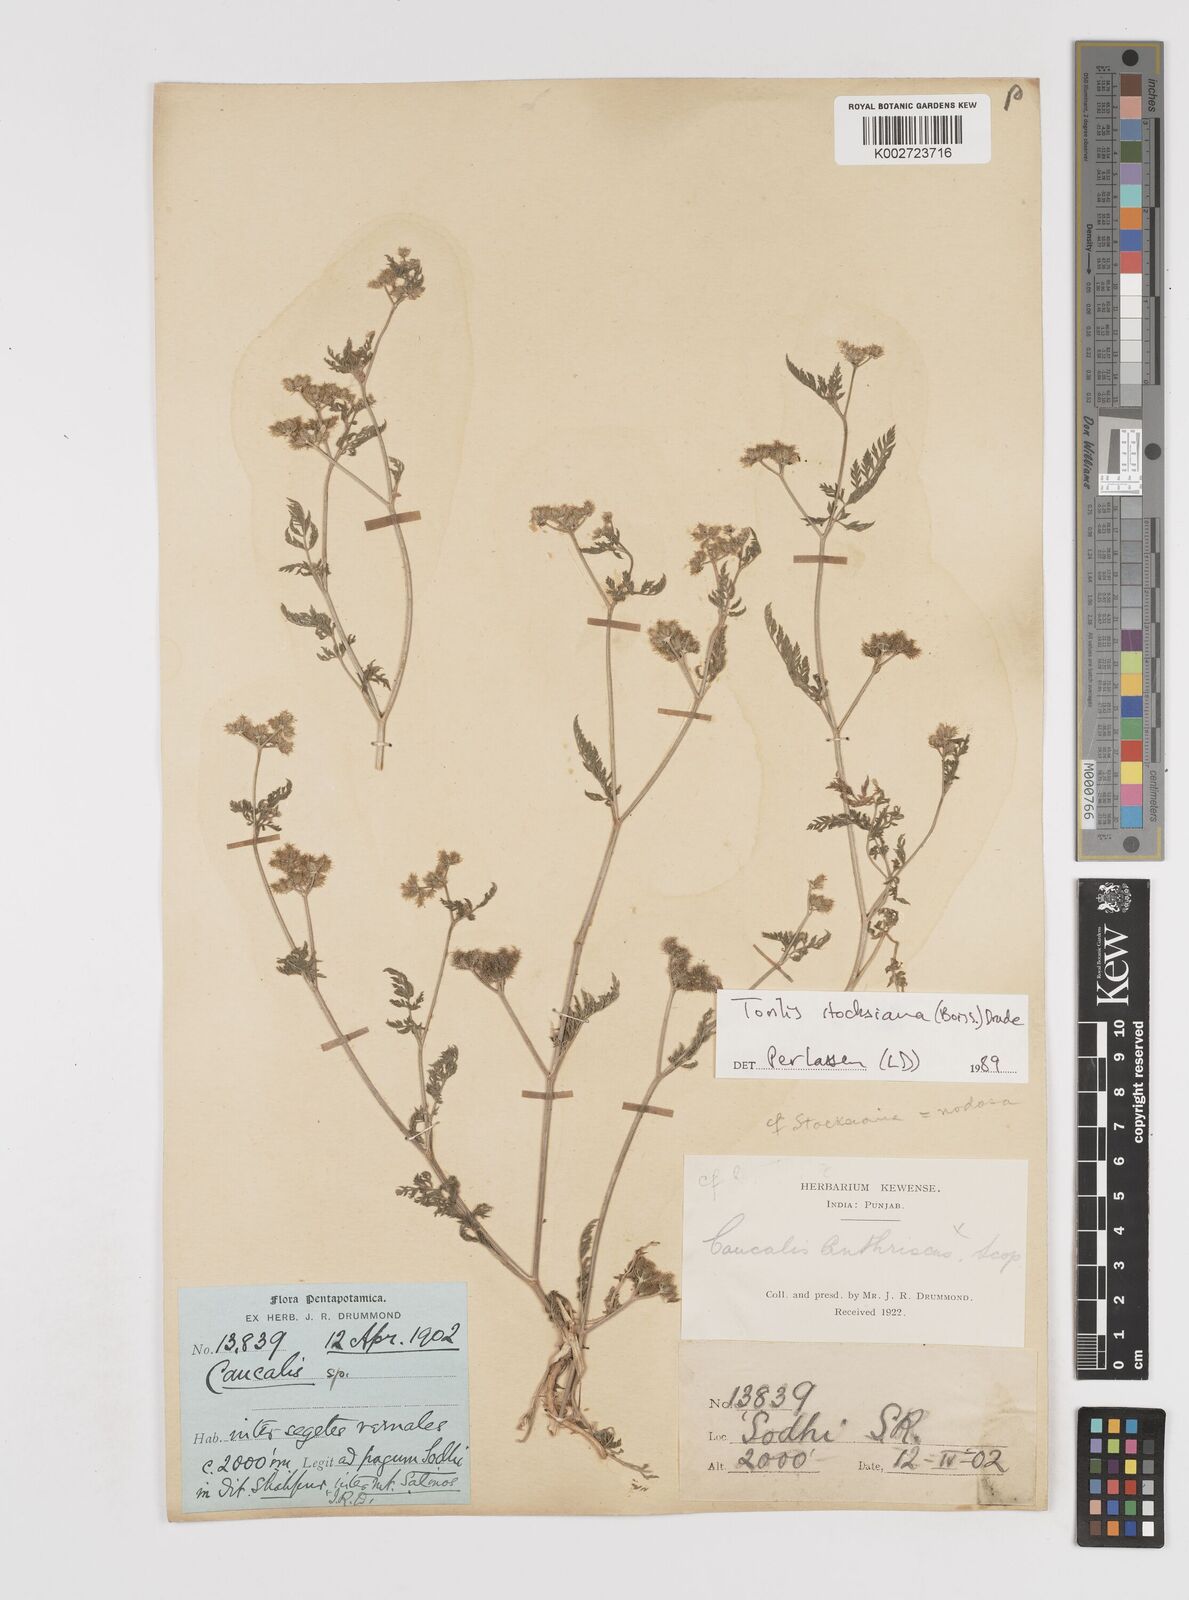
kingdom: Plantae
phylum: Tracheophyta
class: Magnoliopsida
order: Apiales
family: Apiaceae
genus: Torilis
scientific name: Torilis stocksiana
